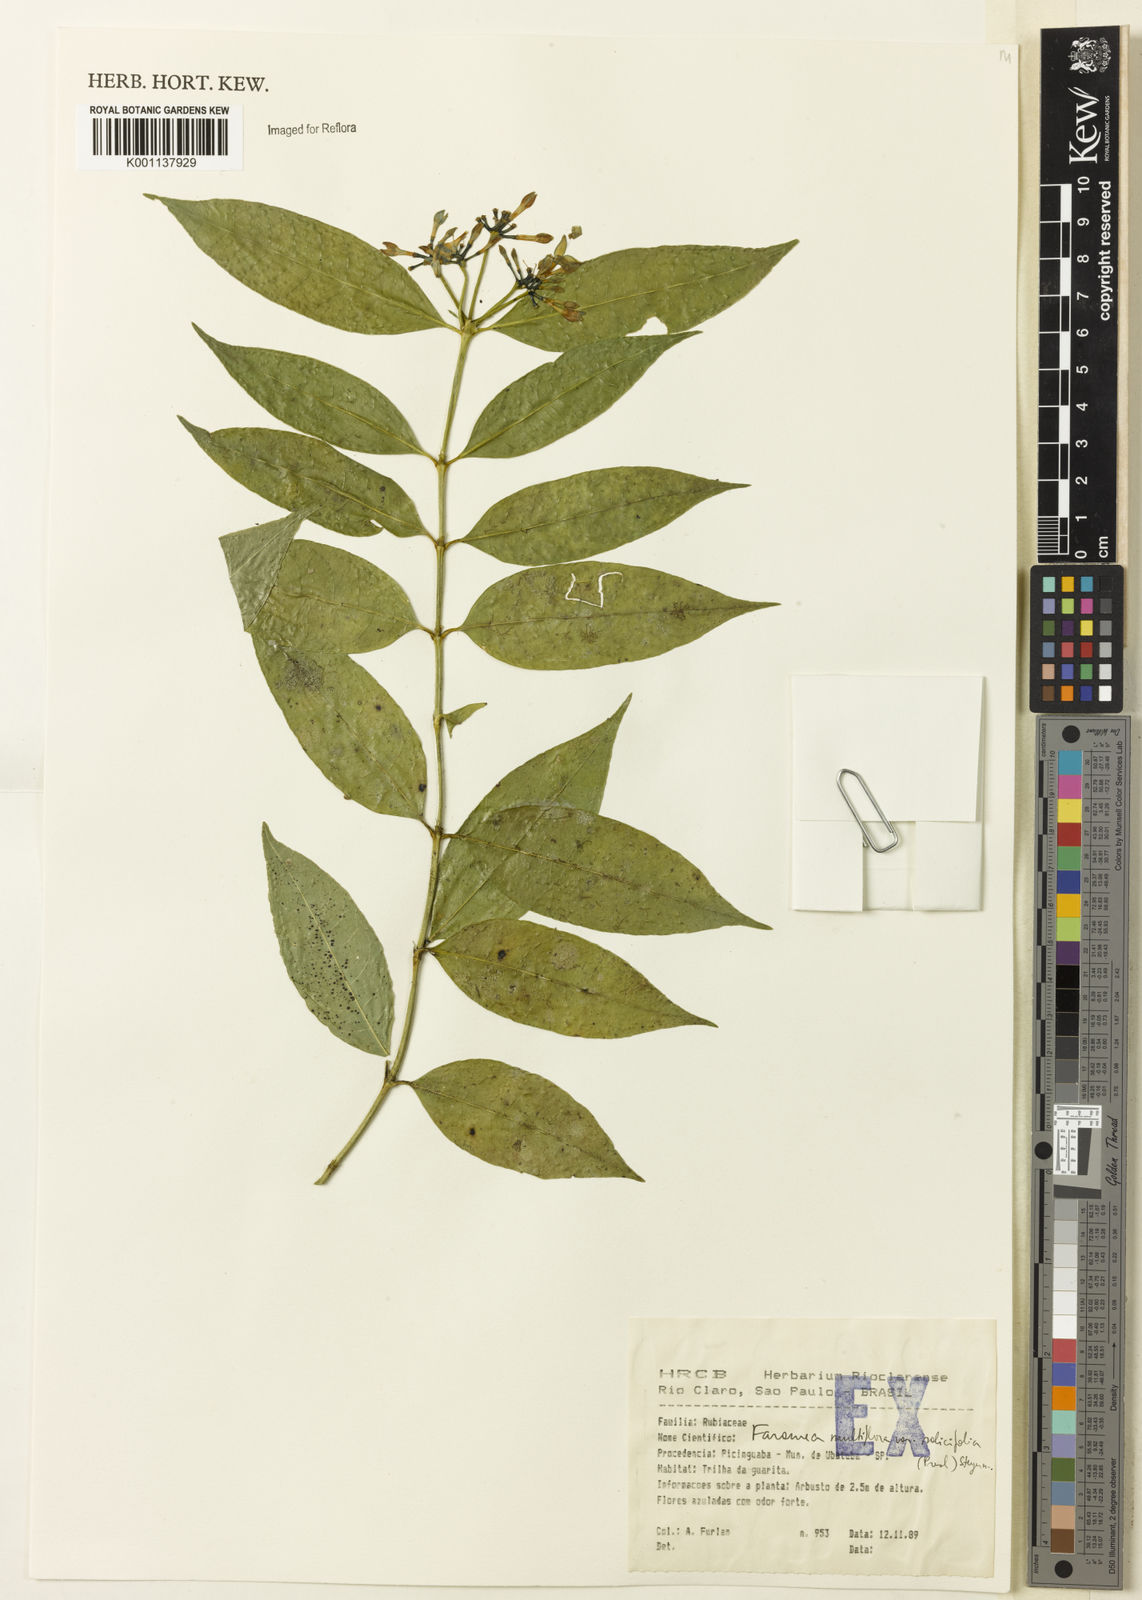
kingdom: Plantae
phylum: Tracheophyta
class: Magnoliopsida
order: Gentianales
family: Rubiaceae
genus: Faramea
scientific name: Faramea multiflora
